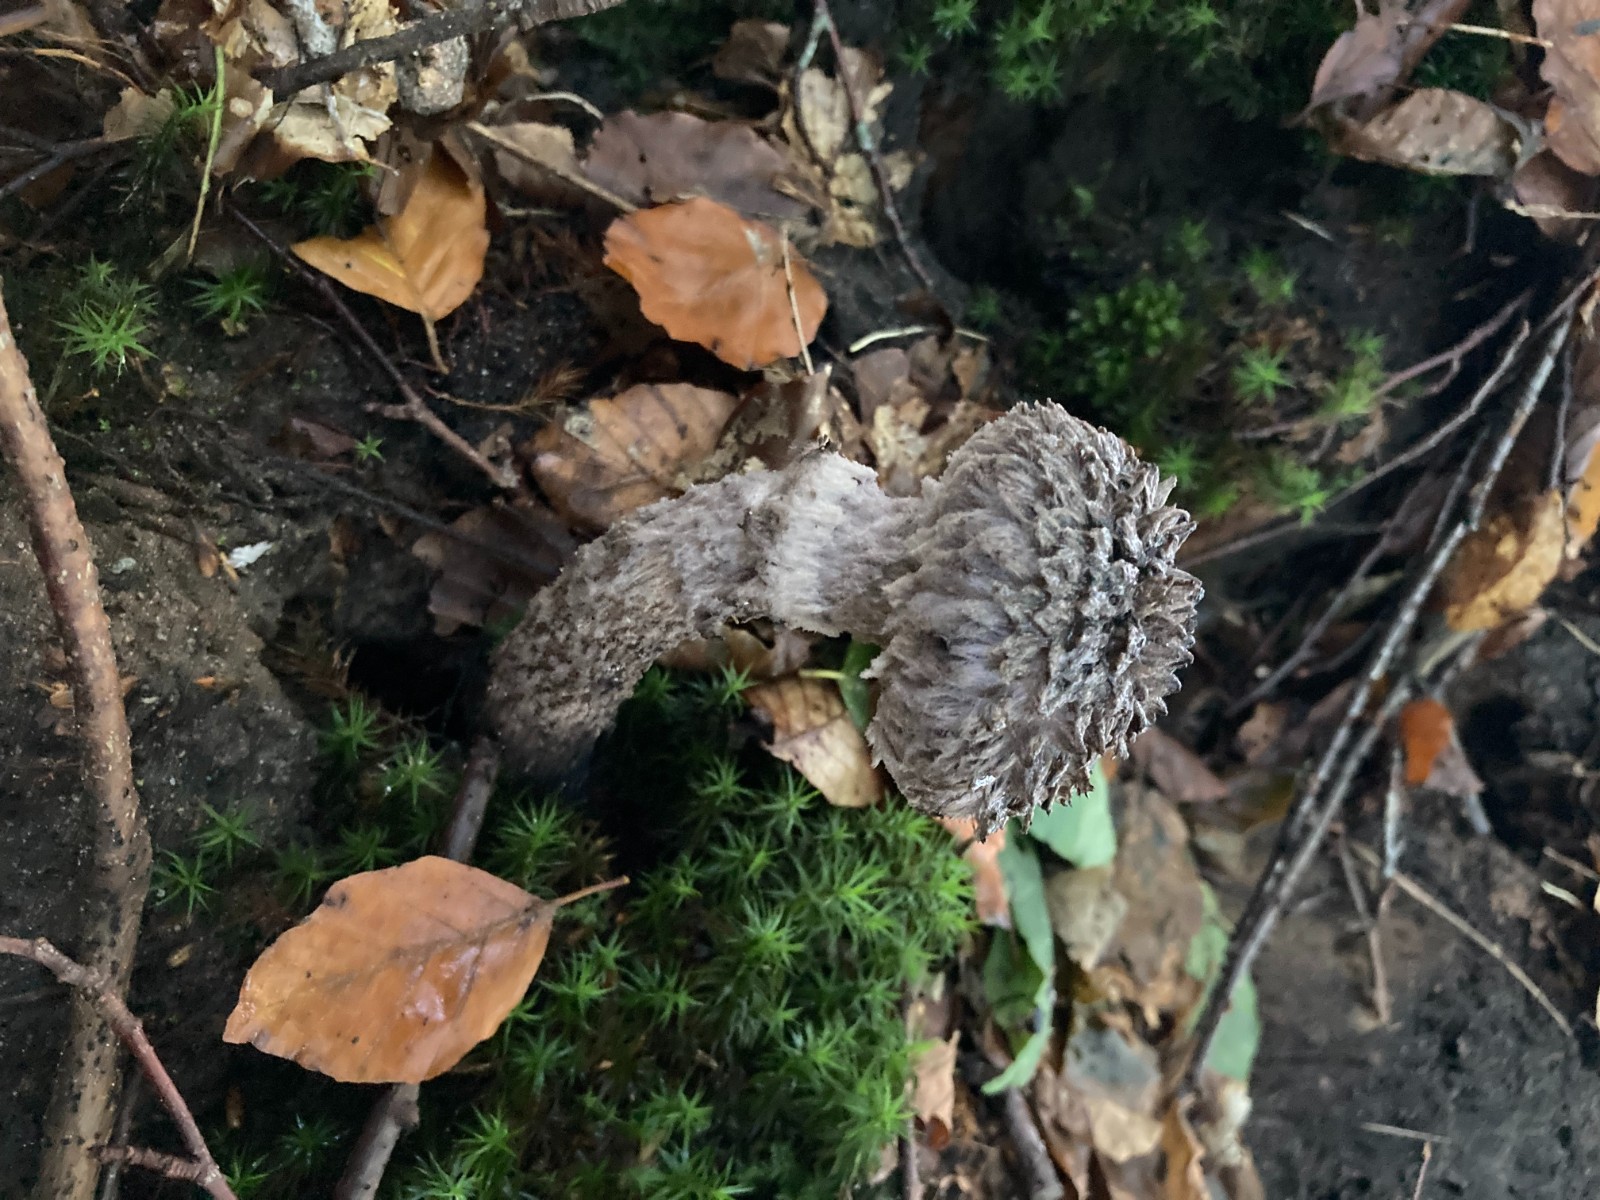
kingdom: Fungi
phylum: Basidiomycota
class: Agaricomycetes
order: Boletales
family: Boletaceae
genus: Strobilomyces
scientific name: Strobilomyces strobilaceus
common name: koglerørhat
